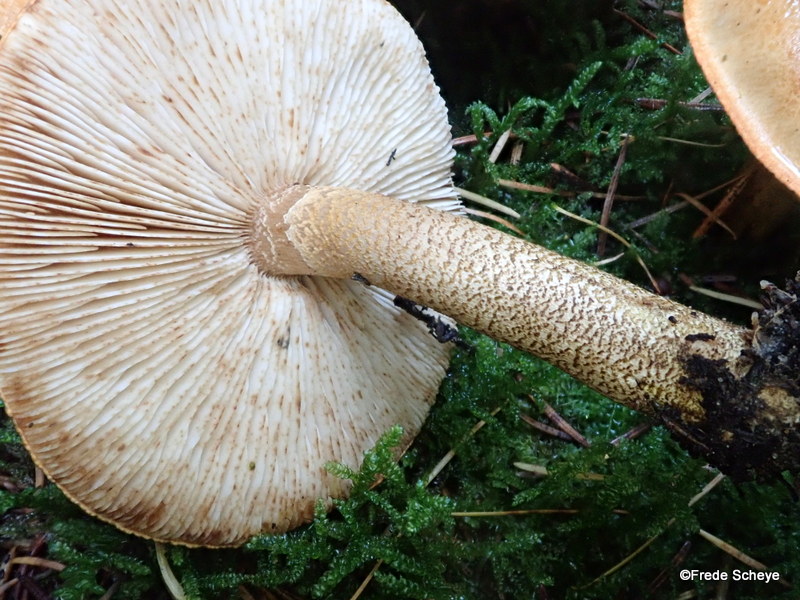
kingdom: Fungi
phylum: Basidiomycota
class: Agaricomycetes
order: Agaricales
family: Tricholomataceae
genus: Tricholoma
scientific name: Tricholoma aurantium
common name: orangegul ridderhat
